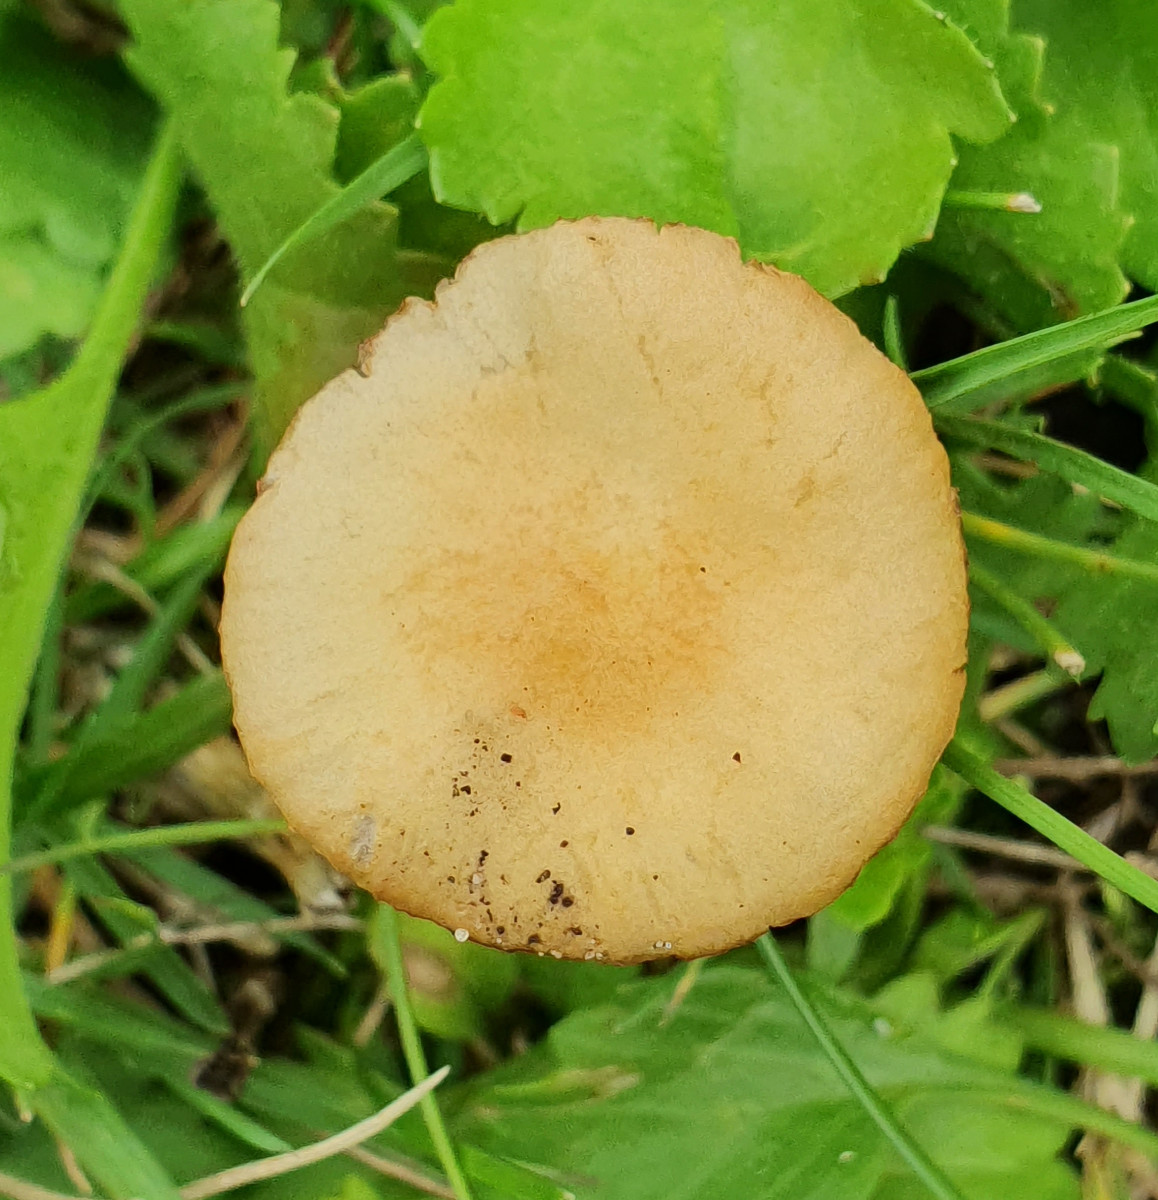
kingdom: Fungi
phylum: Basidiomycota
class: Agaricomycetes
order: Agaricales
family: Strophariaceae
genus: Agrocybe
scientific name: Agrocybe pediades
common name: almindelig agerhat
